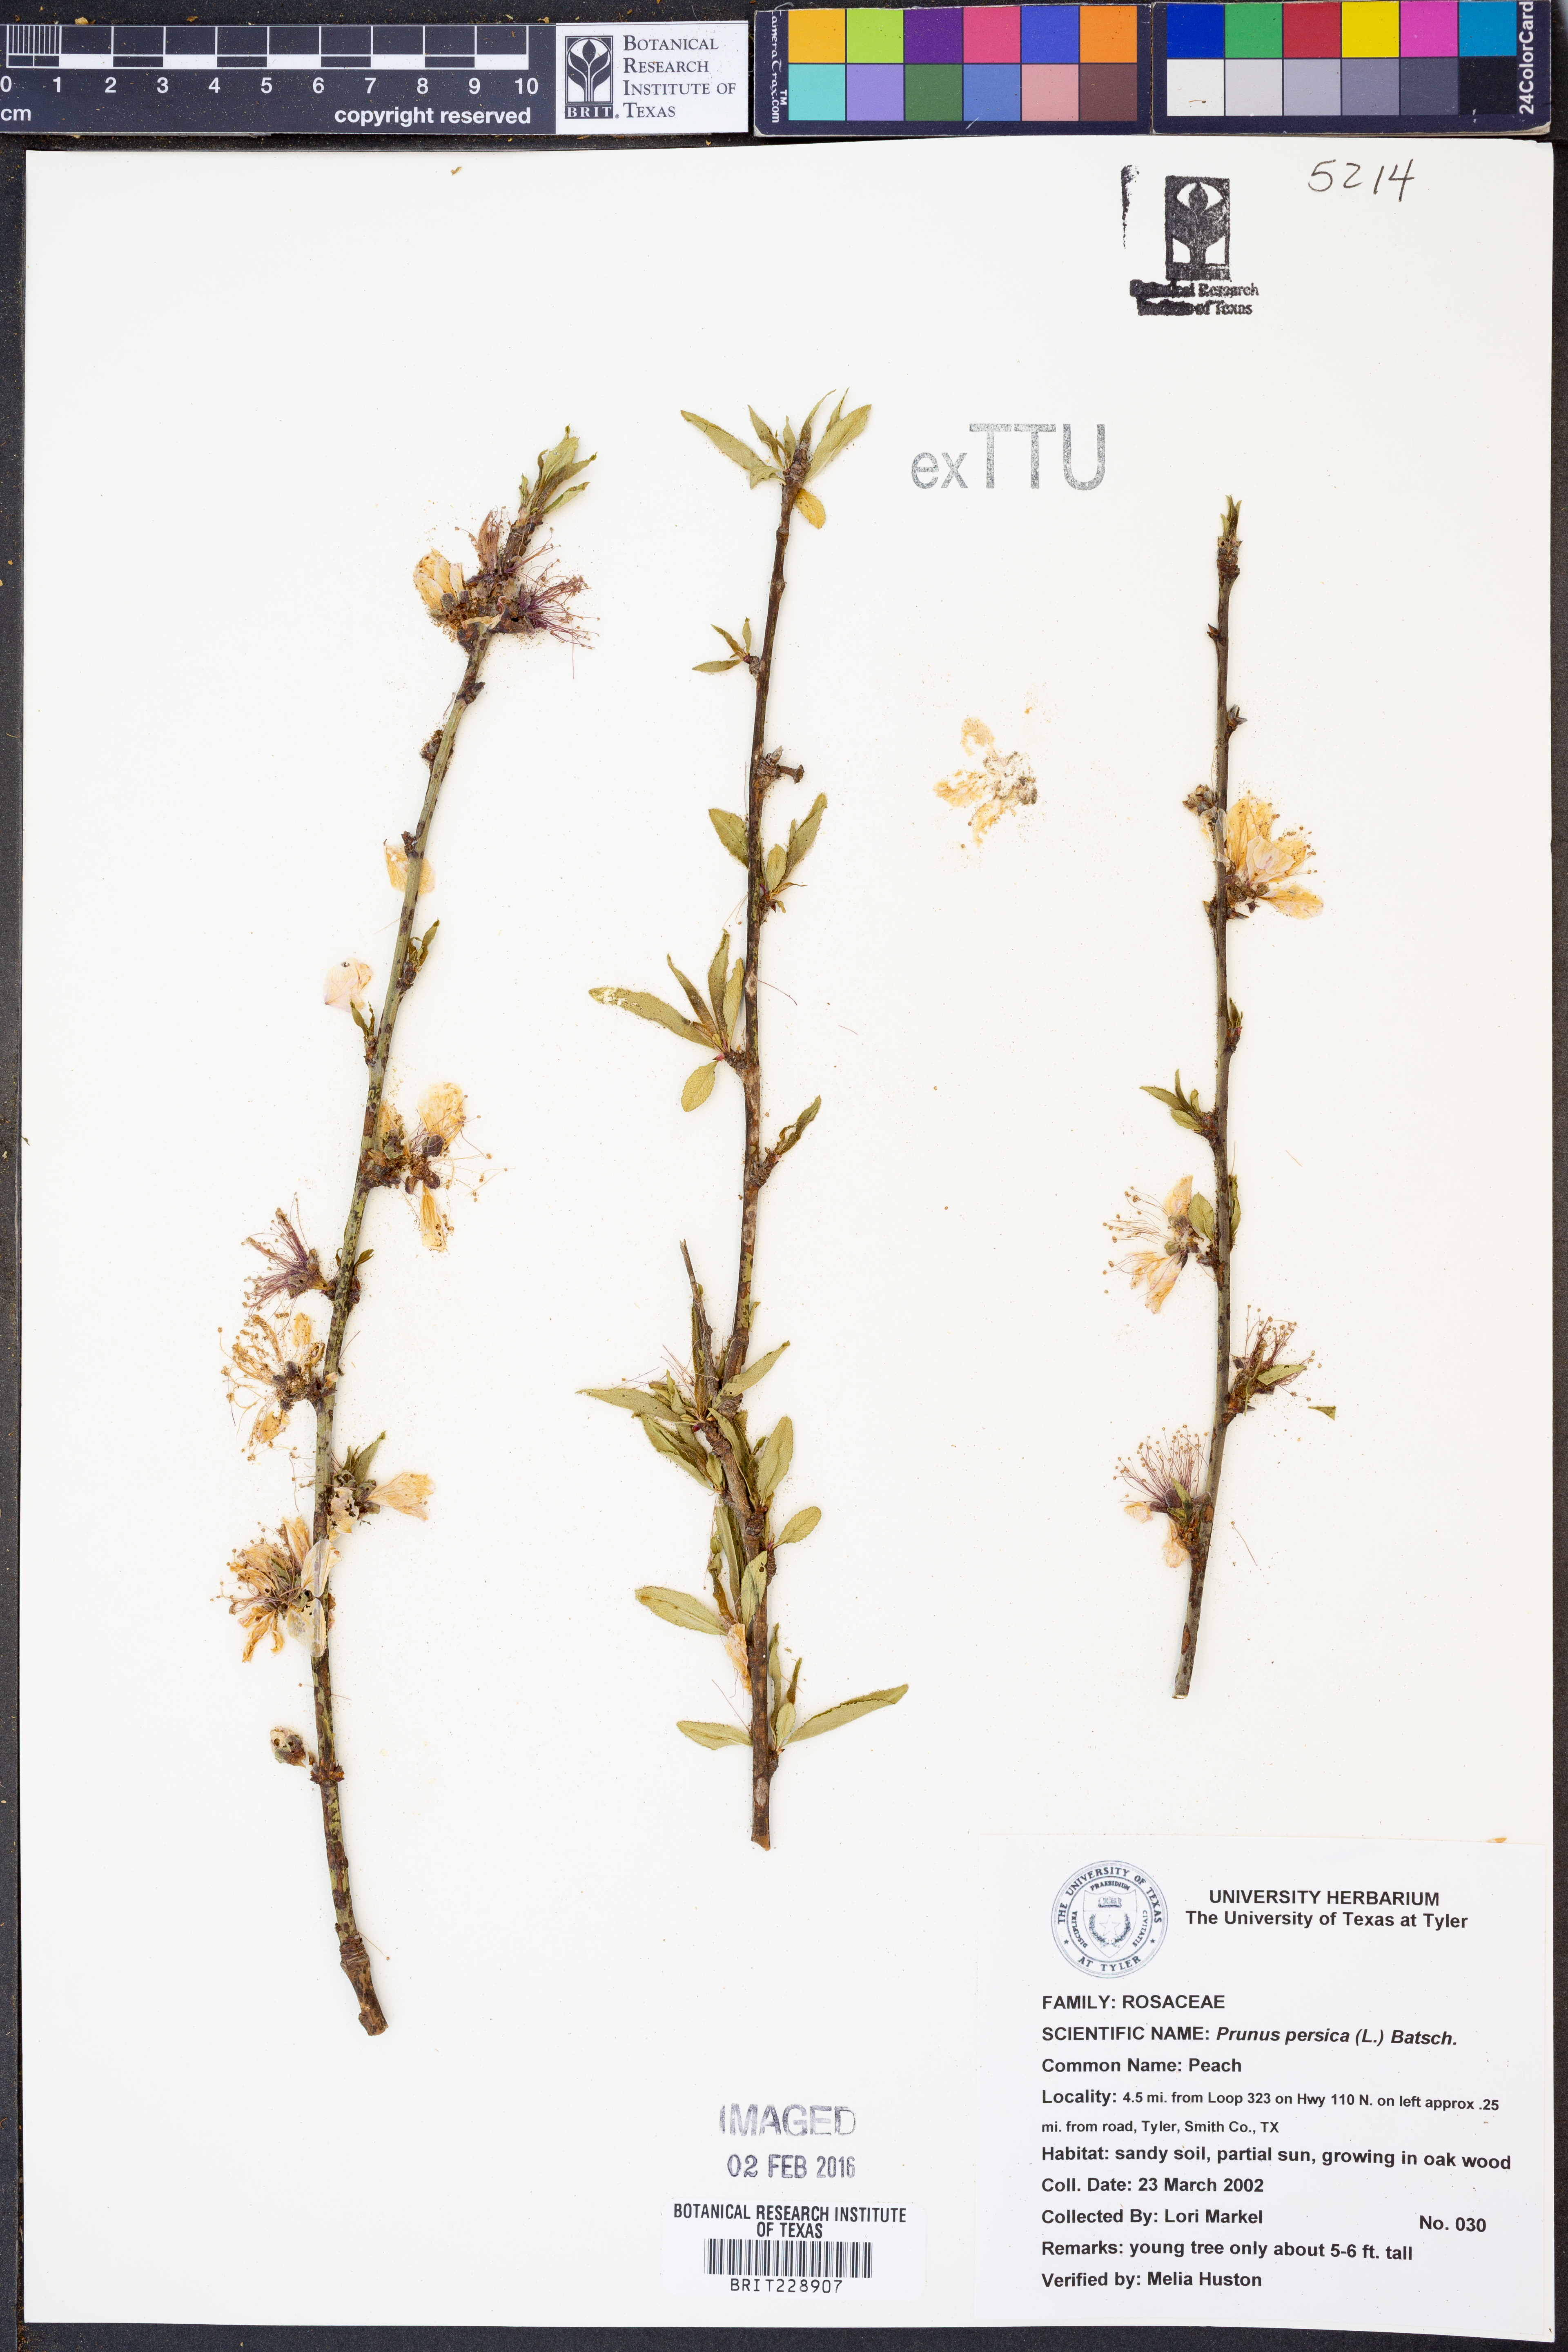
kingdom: Plantae
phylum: Tracheophyta
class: Magnoliopsida
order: Rosales
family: Rosaceae
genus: Prunus
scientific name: Prunus persica
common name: Peach
